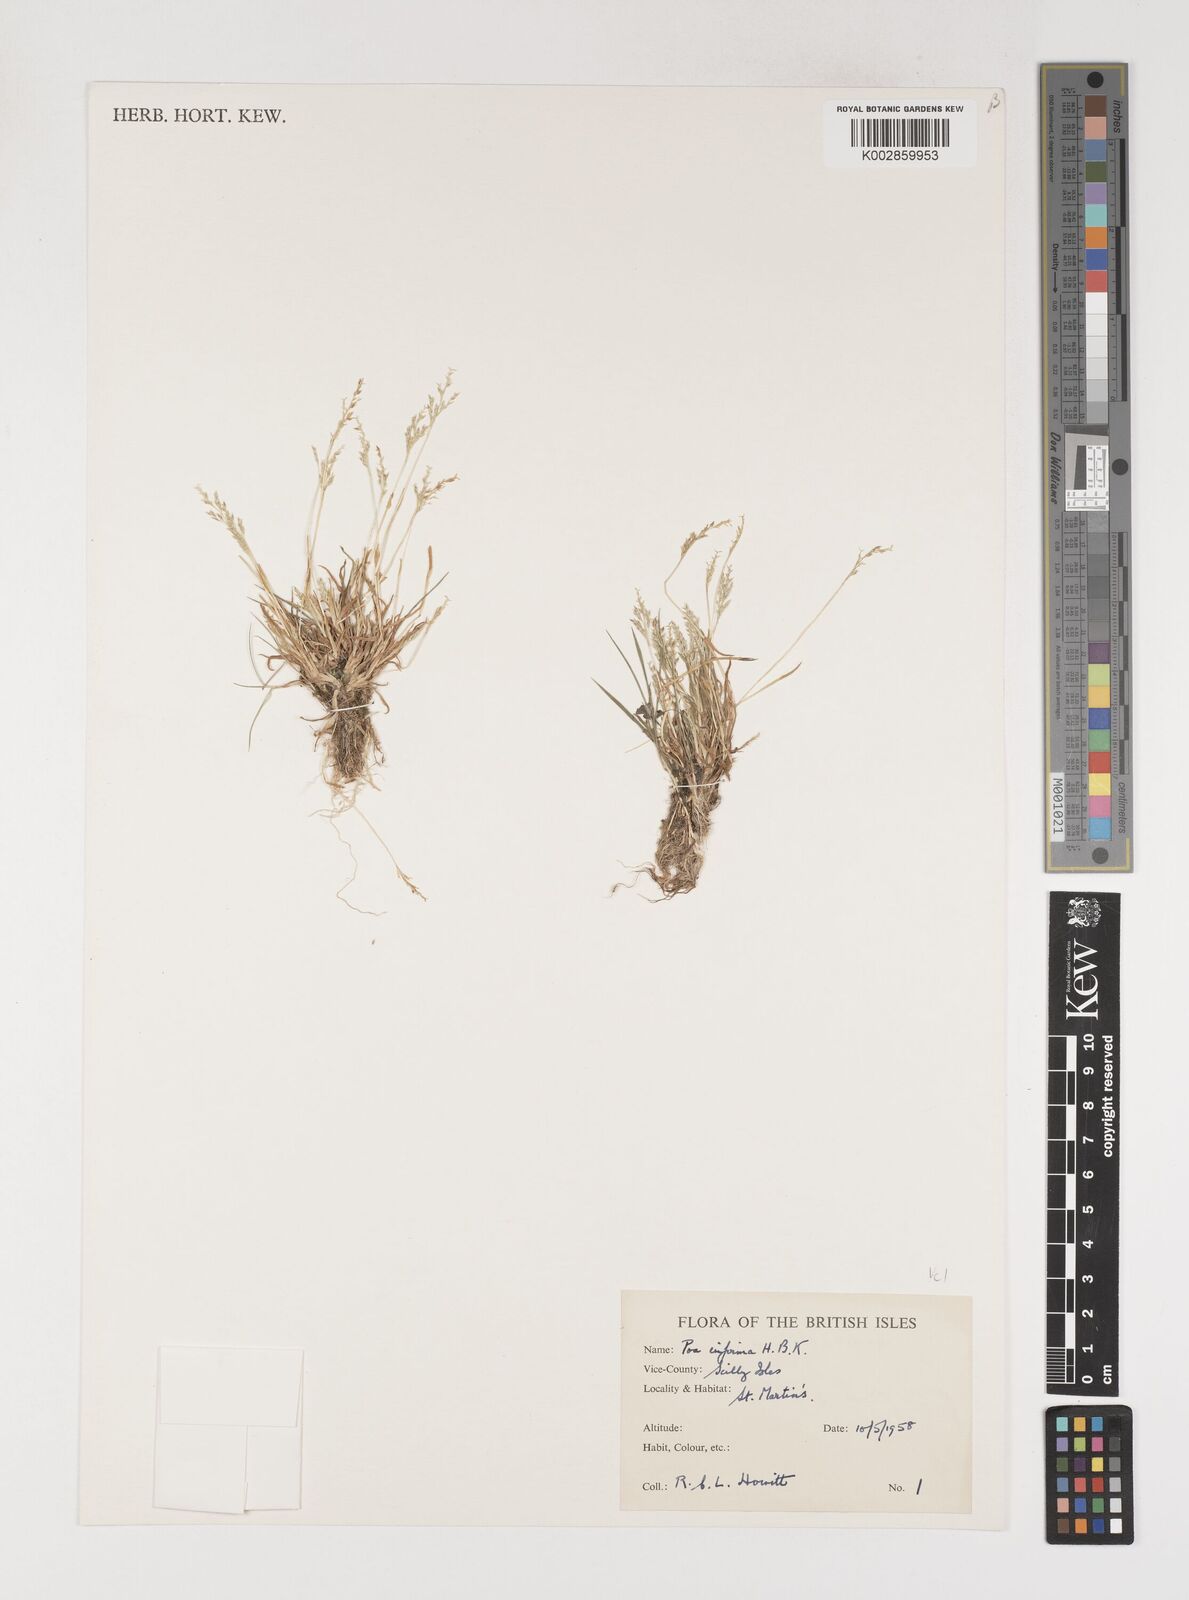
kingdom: Plantae
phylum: Tracheophyta
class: Liliopsida
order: Poales
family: Poaceae
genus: Poa
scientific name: Poa infirma
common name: Weak bluegrass
